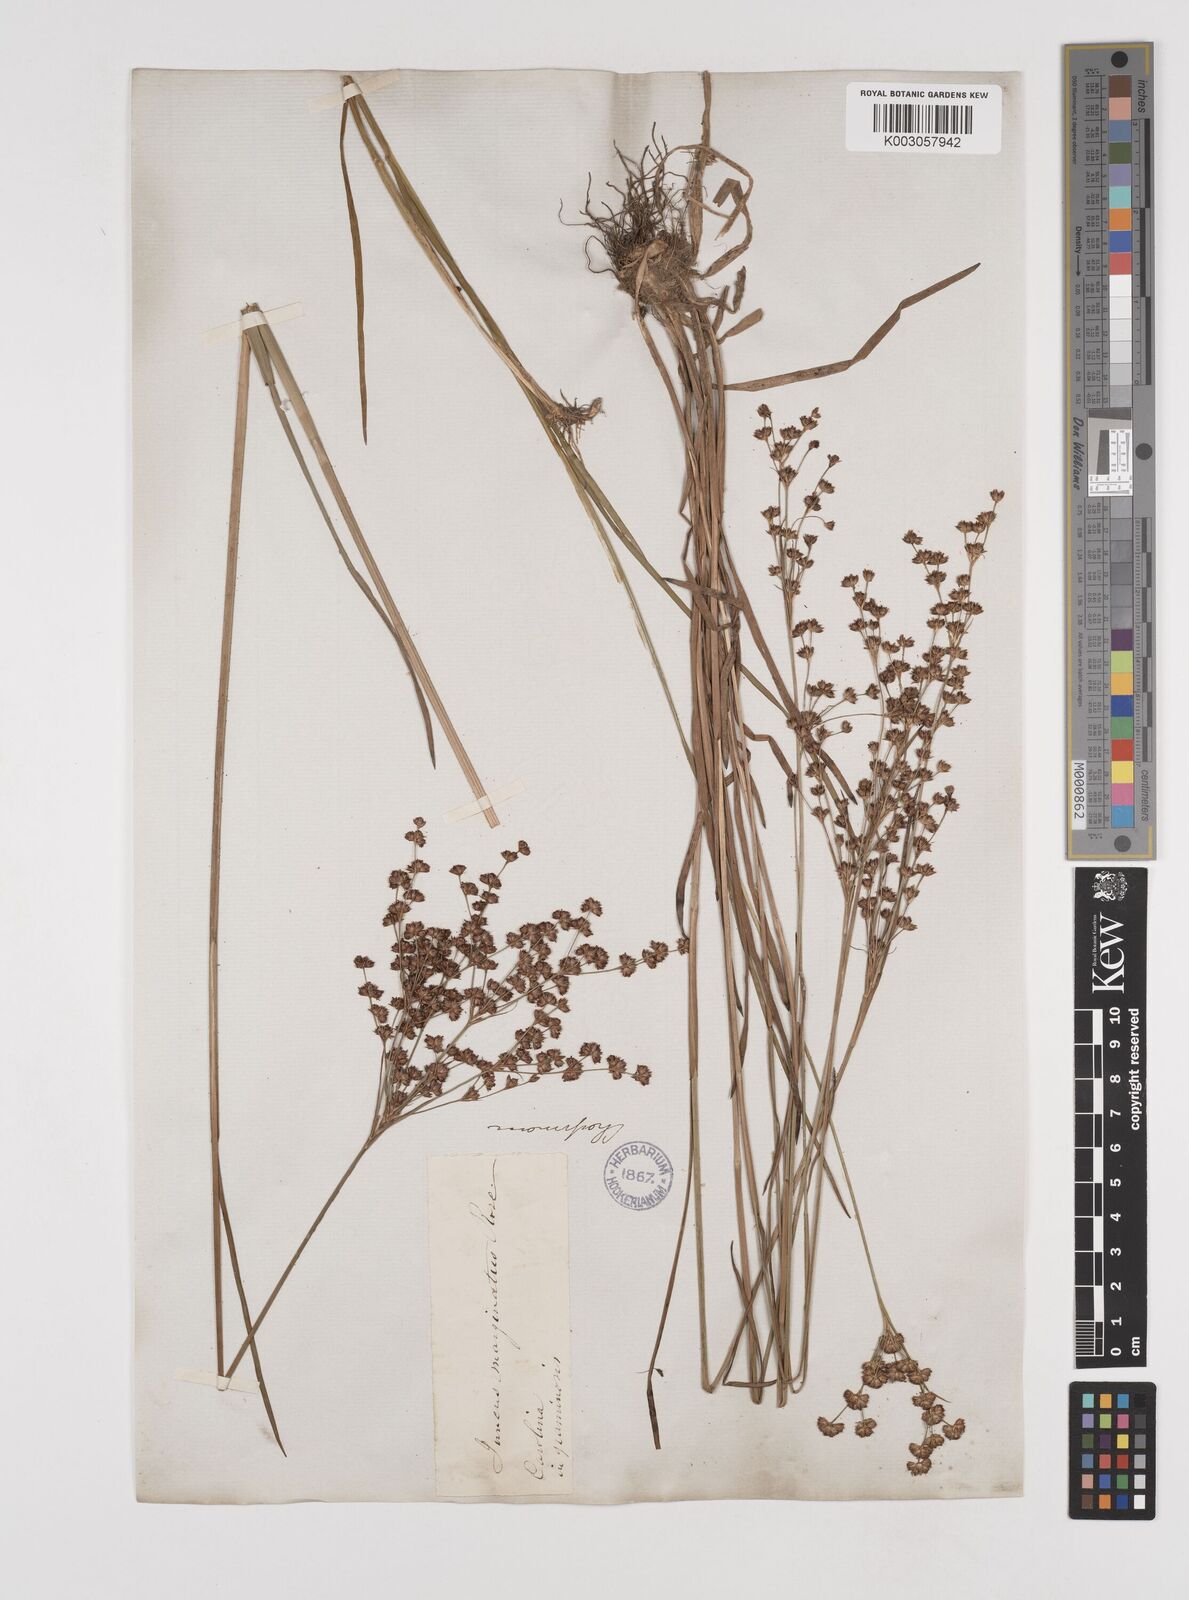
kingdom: Plantae
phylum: Tracheophyta
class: Liliopsida
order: Poales
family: Juncaceae
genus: Juncus
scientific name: Juncus marginatus
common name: Grass-leaf rush
